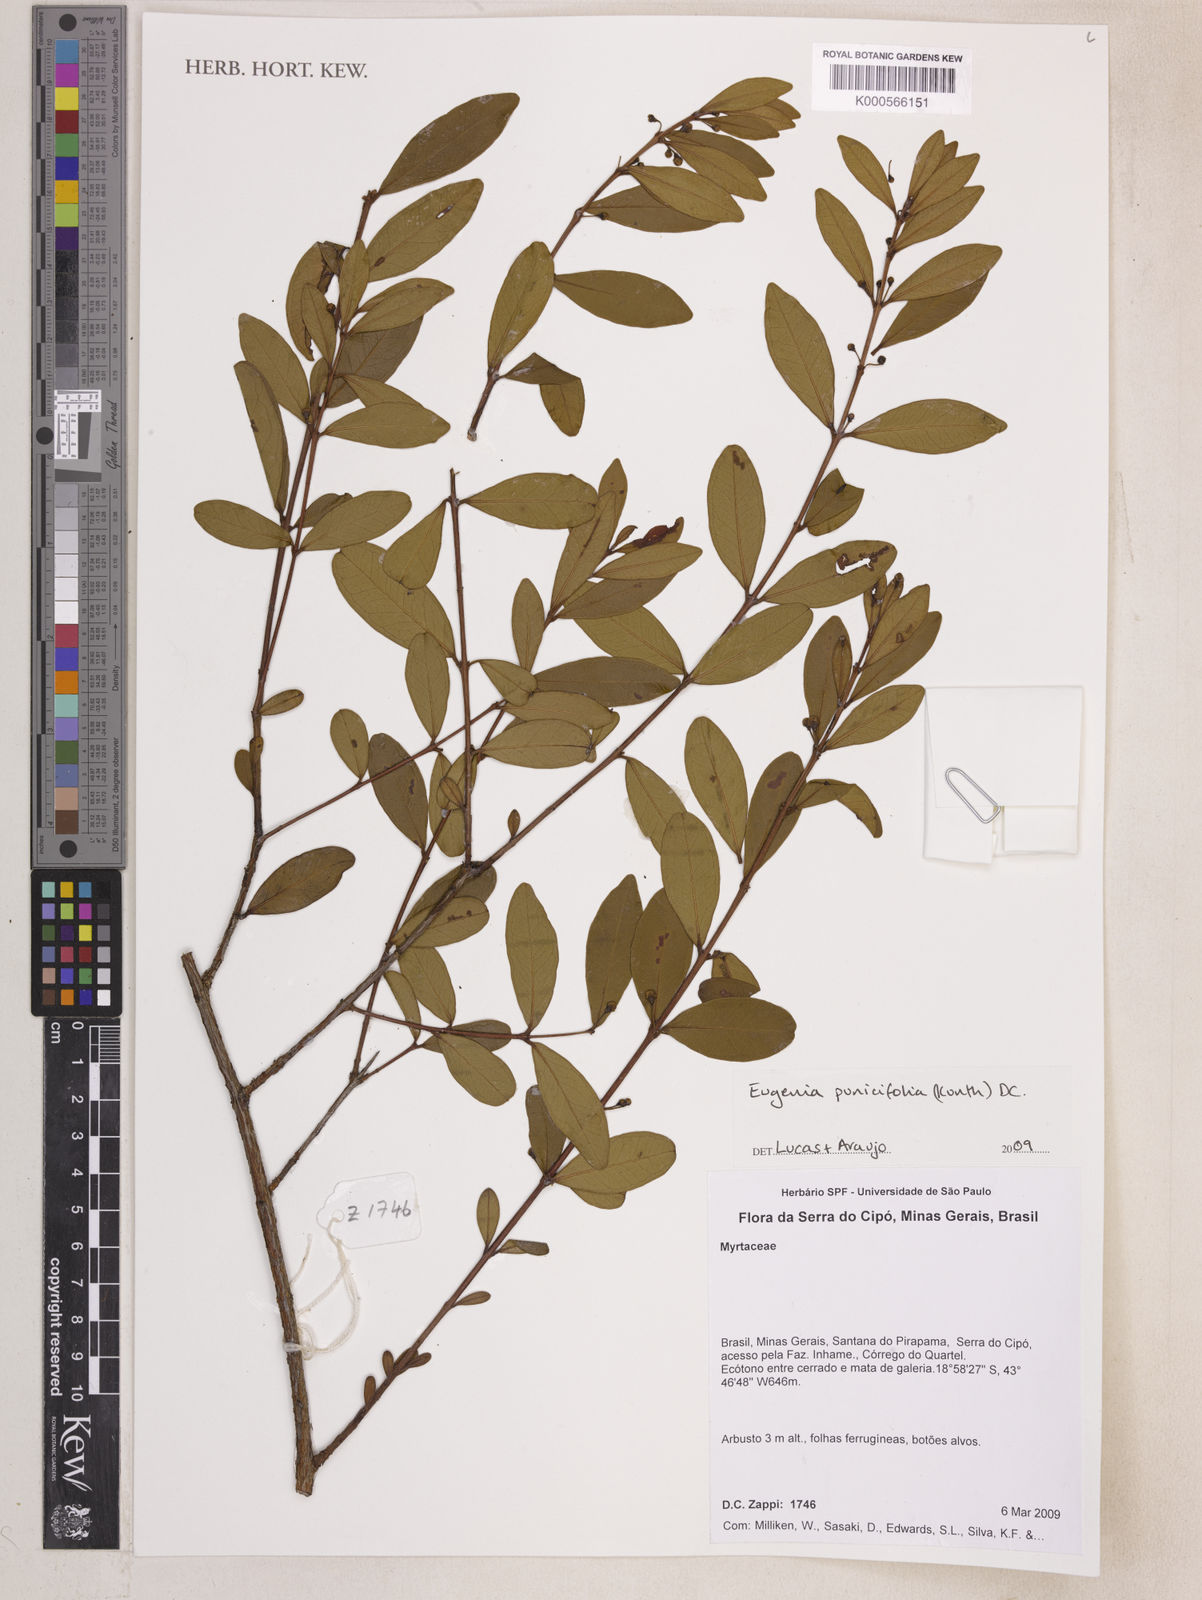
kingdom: Plantae
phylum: Tracheophyta
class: Magnoliopsida
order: Myrtales
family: Myrtaceae
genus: Eugenia
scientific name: Eugenia punicifolia
